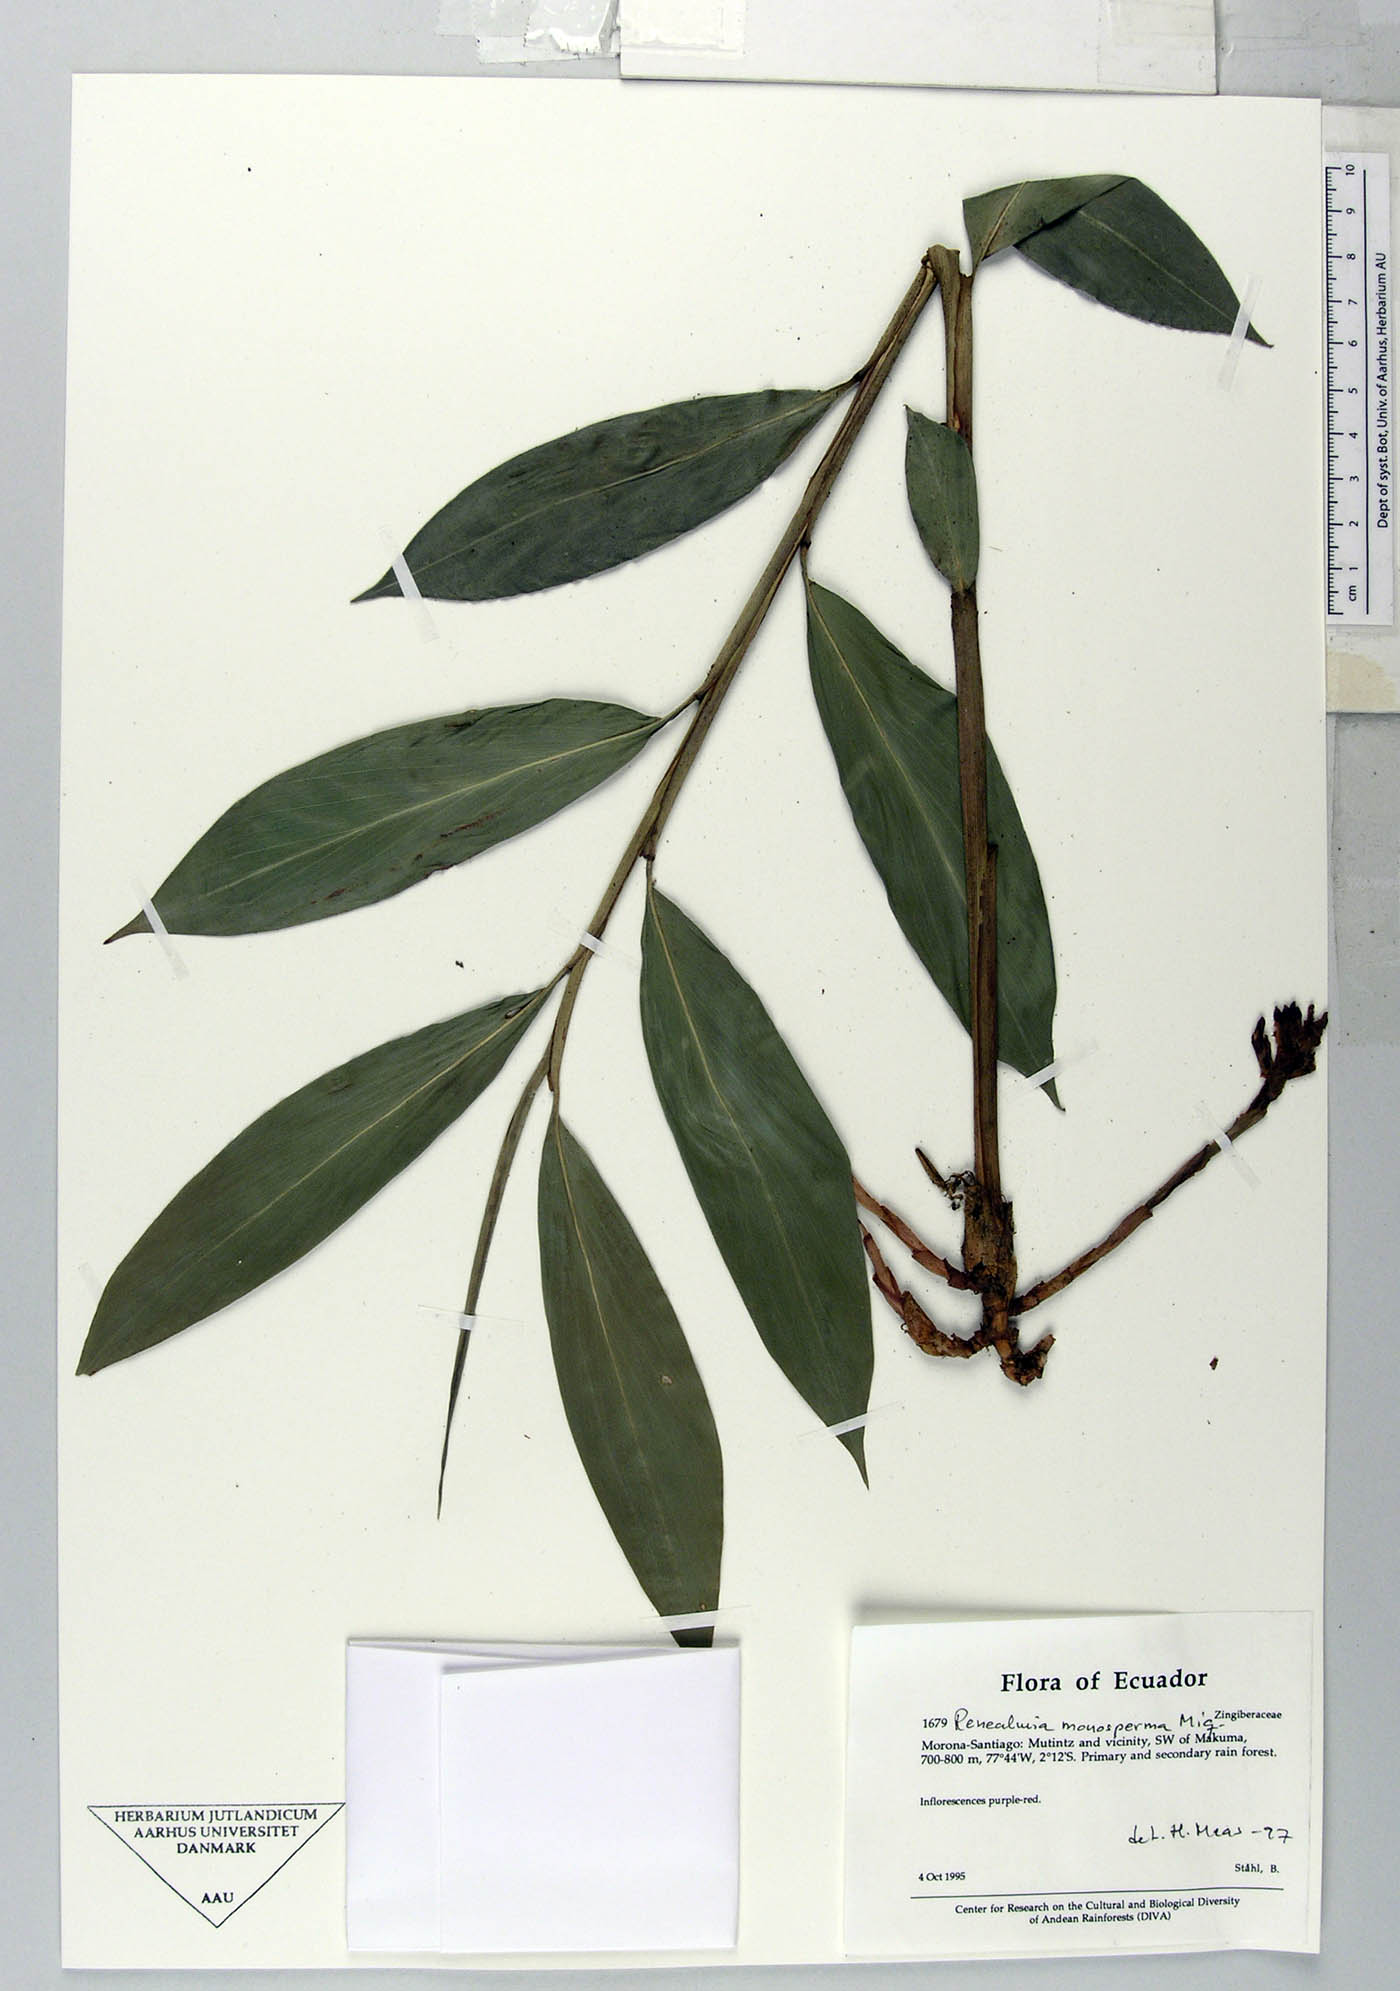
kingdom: Plantae
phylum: Tracheophyta
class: Liliopsida
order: Zingiberales
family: Zingiberaceae
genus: Renealmia
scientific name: Renealmia monosperma
